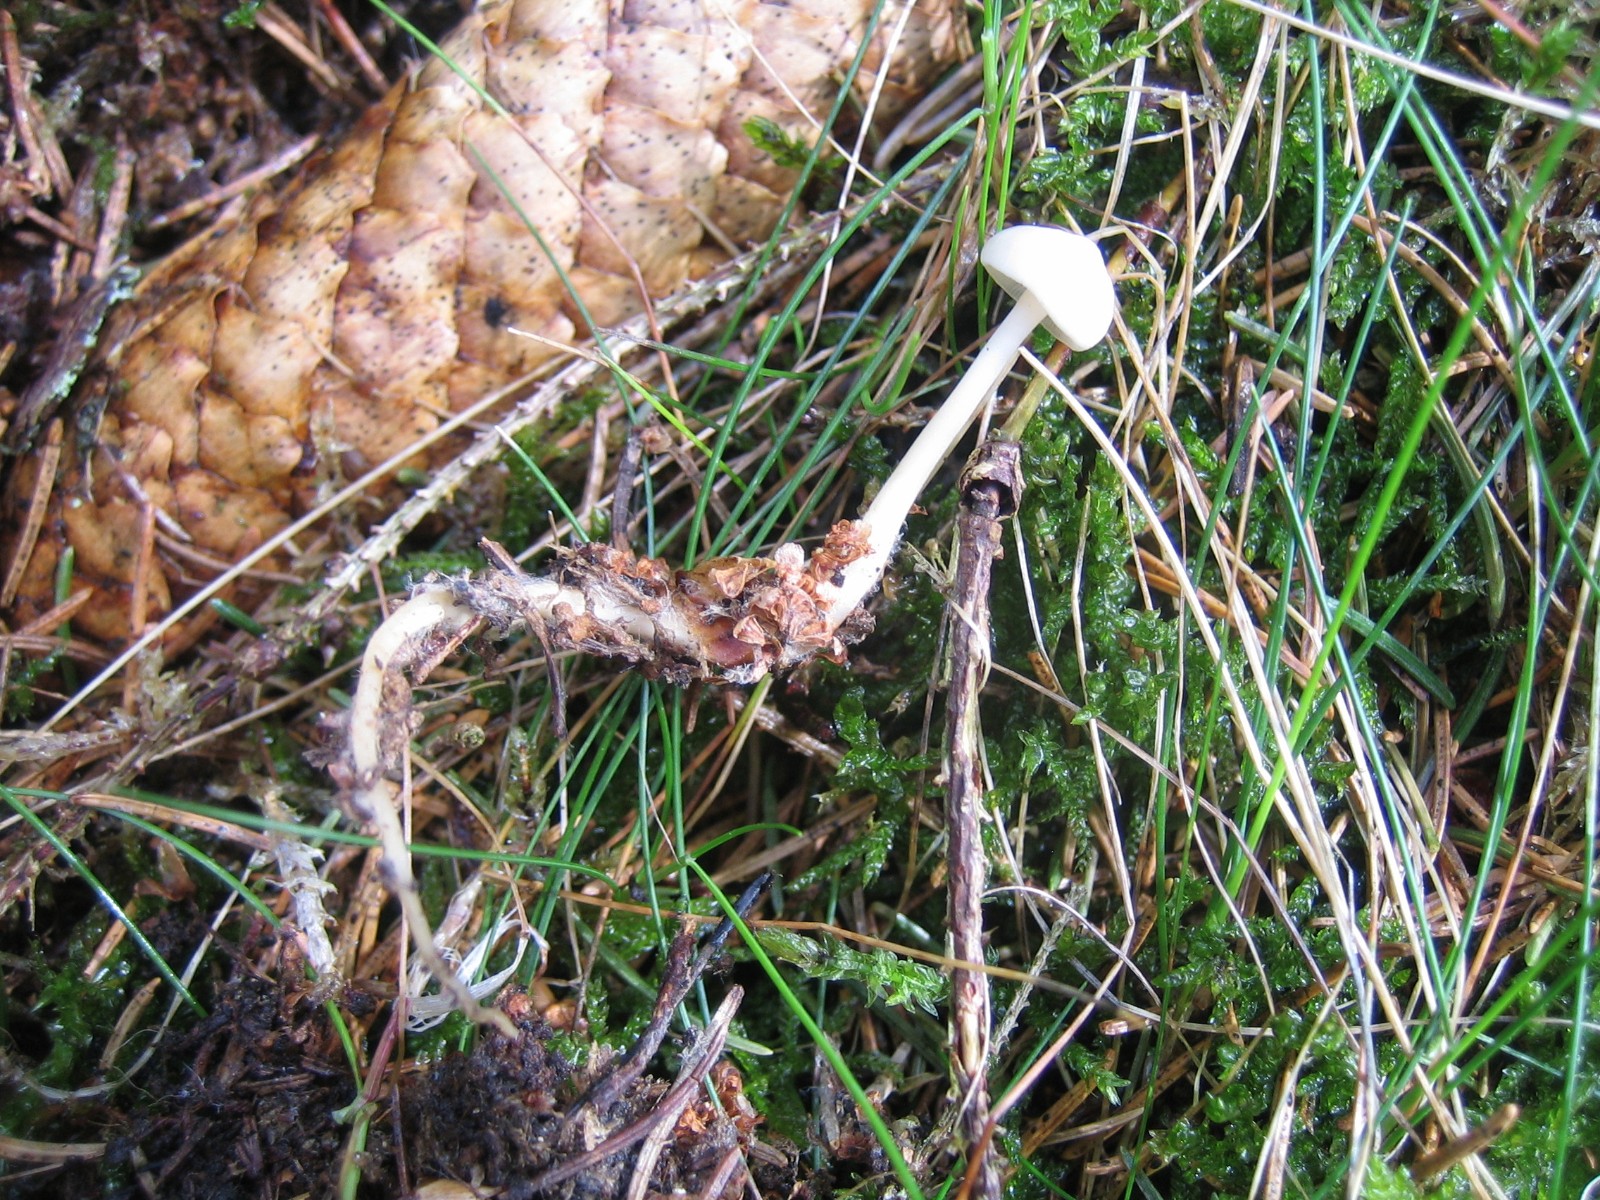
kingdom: Fungi
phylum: Basidiomycota
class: Agaricomycetes
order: Agaricales
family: Physalacriaceae
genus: Strobilurus
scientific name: Strobilurus esculentus
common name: gran-koglehat
